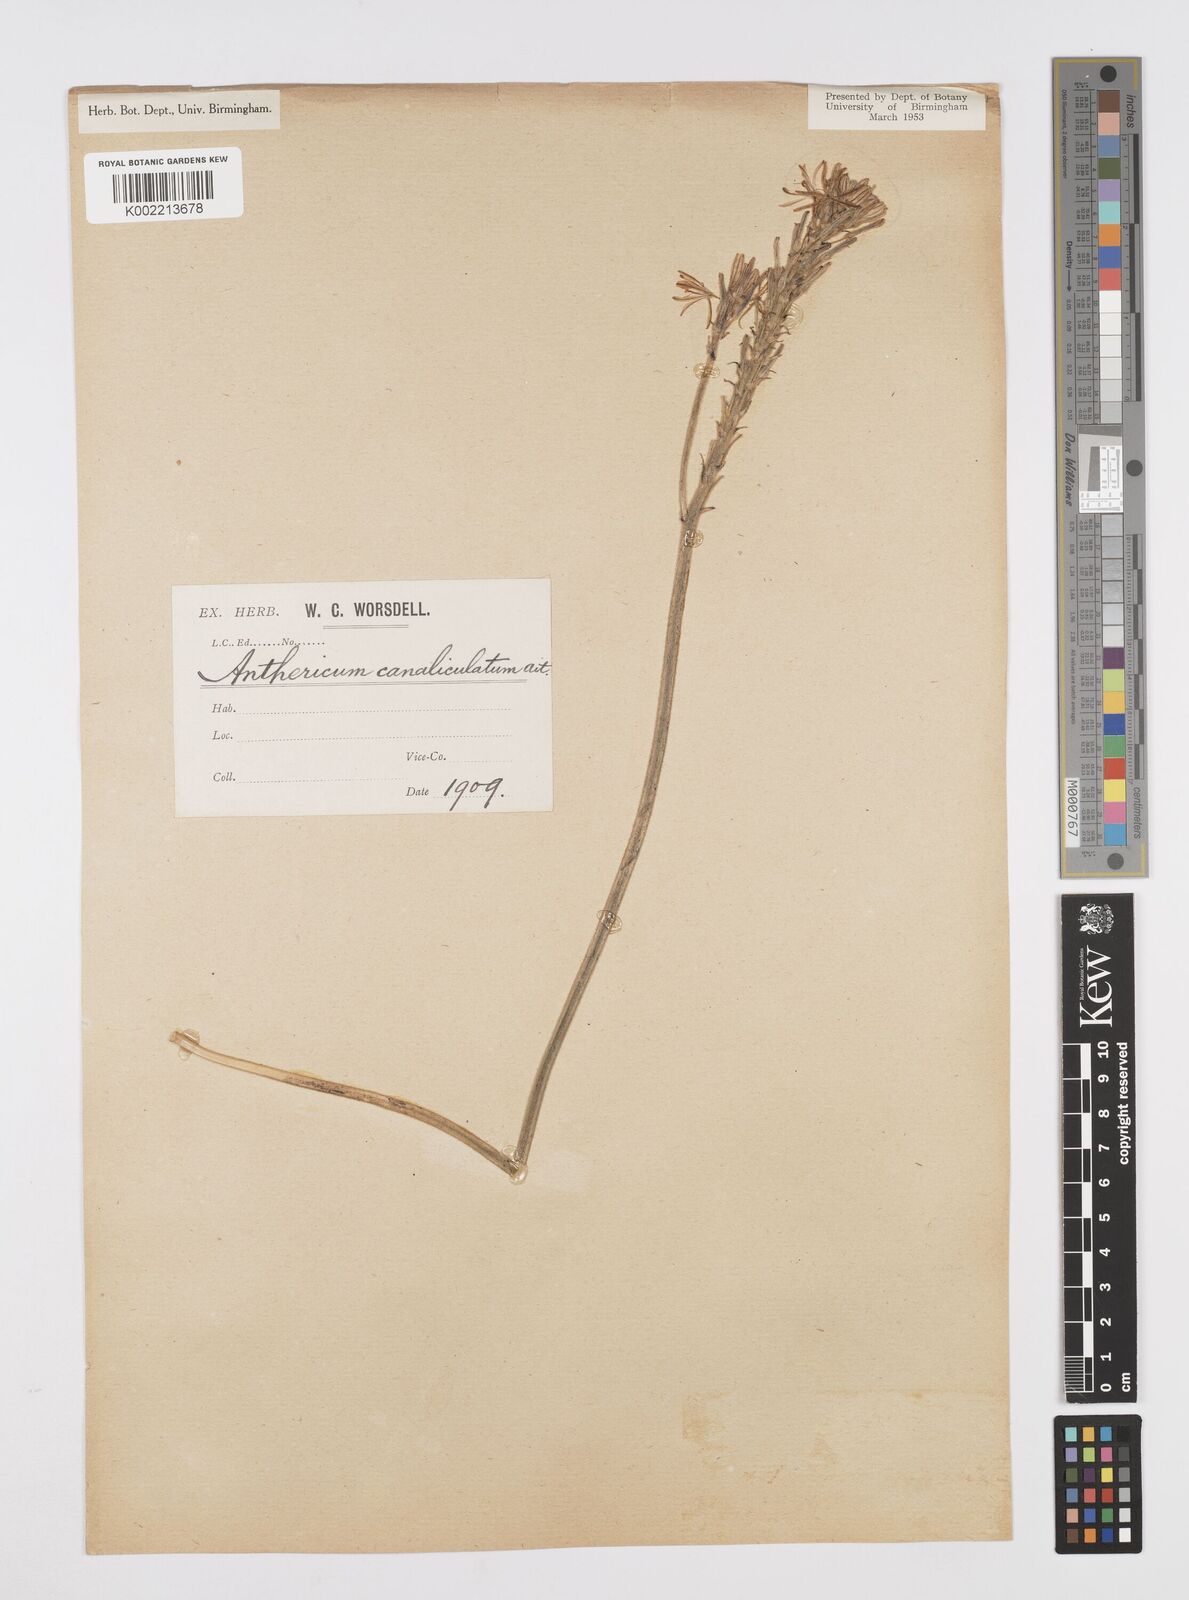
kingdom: Plantae
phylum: Tracheophyta
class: Liliopsida
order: Asparagales
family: Asphodelaceae
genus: Trachyandra
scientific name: Trachyandra hirsutiflora
